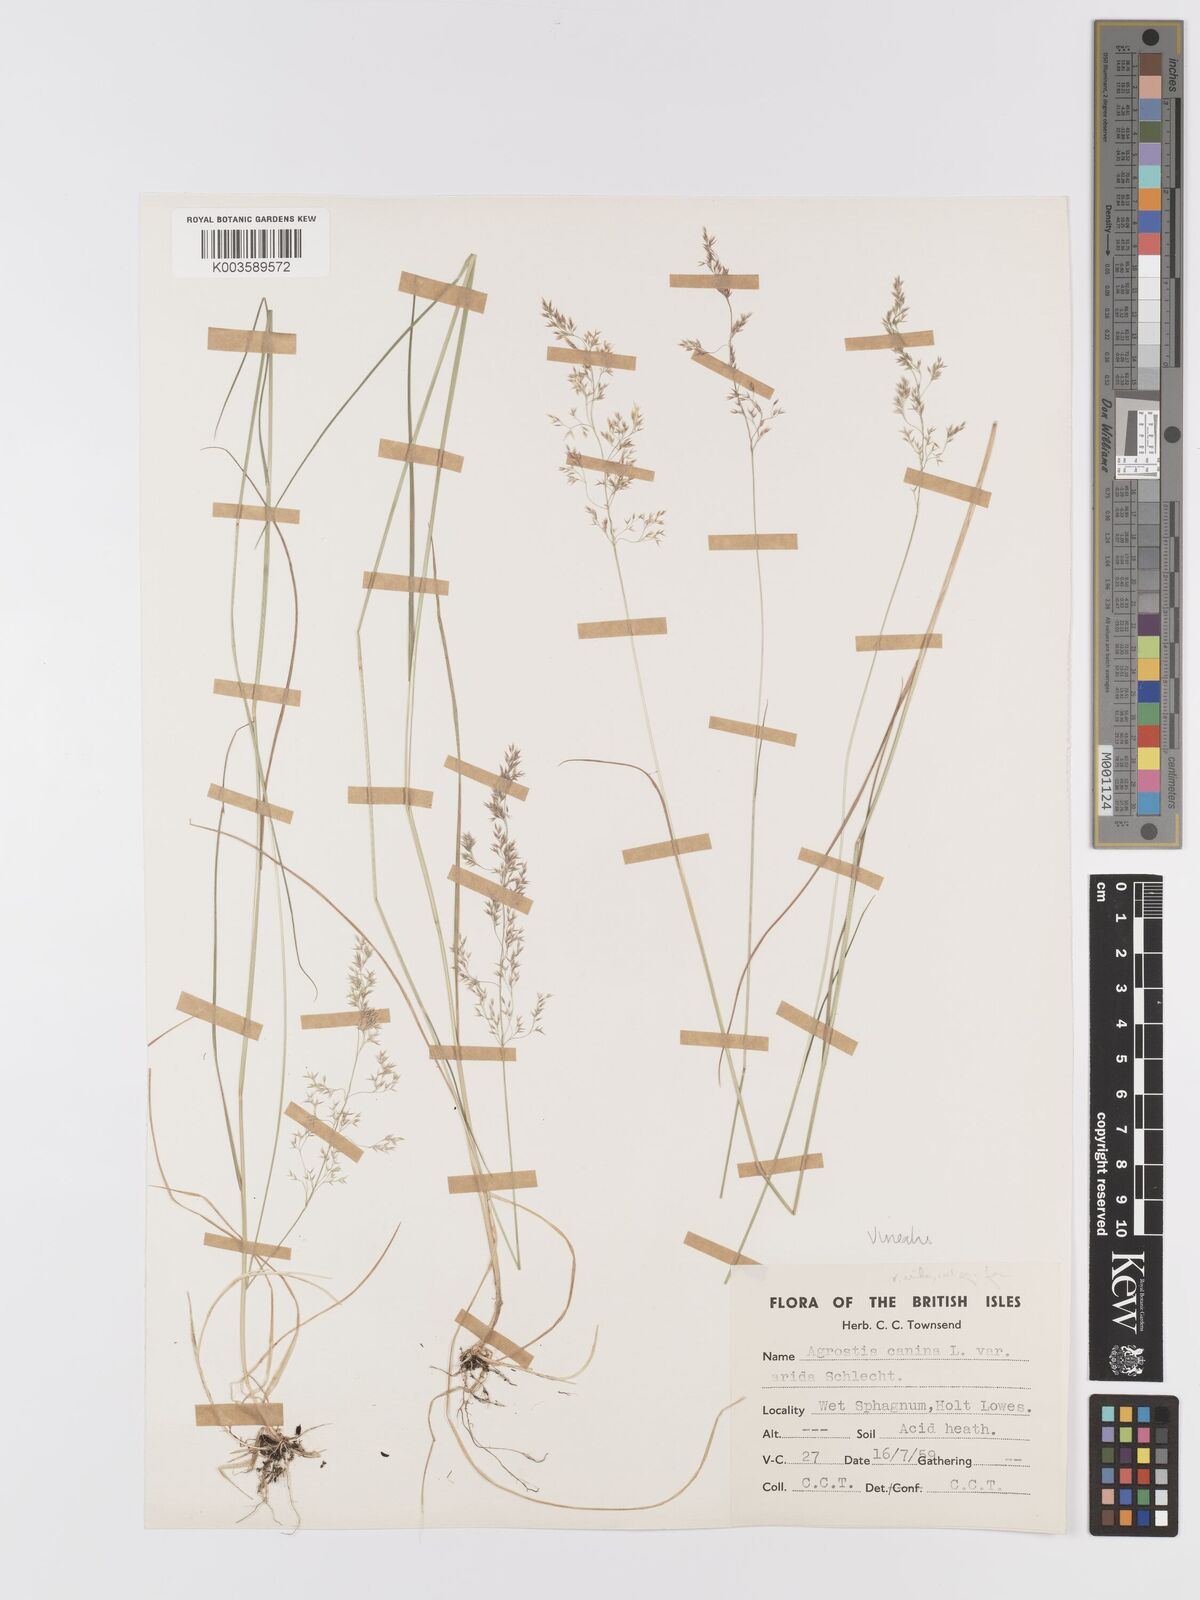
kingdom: Plantae
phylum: Tracheophyta
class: Liliopsida
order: Poales
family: Poaceae
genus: Agrostis
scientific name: Agrostis
